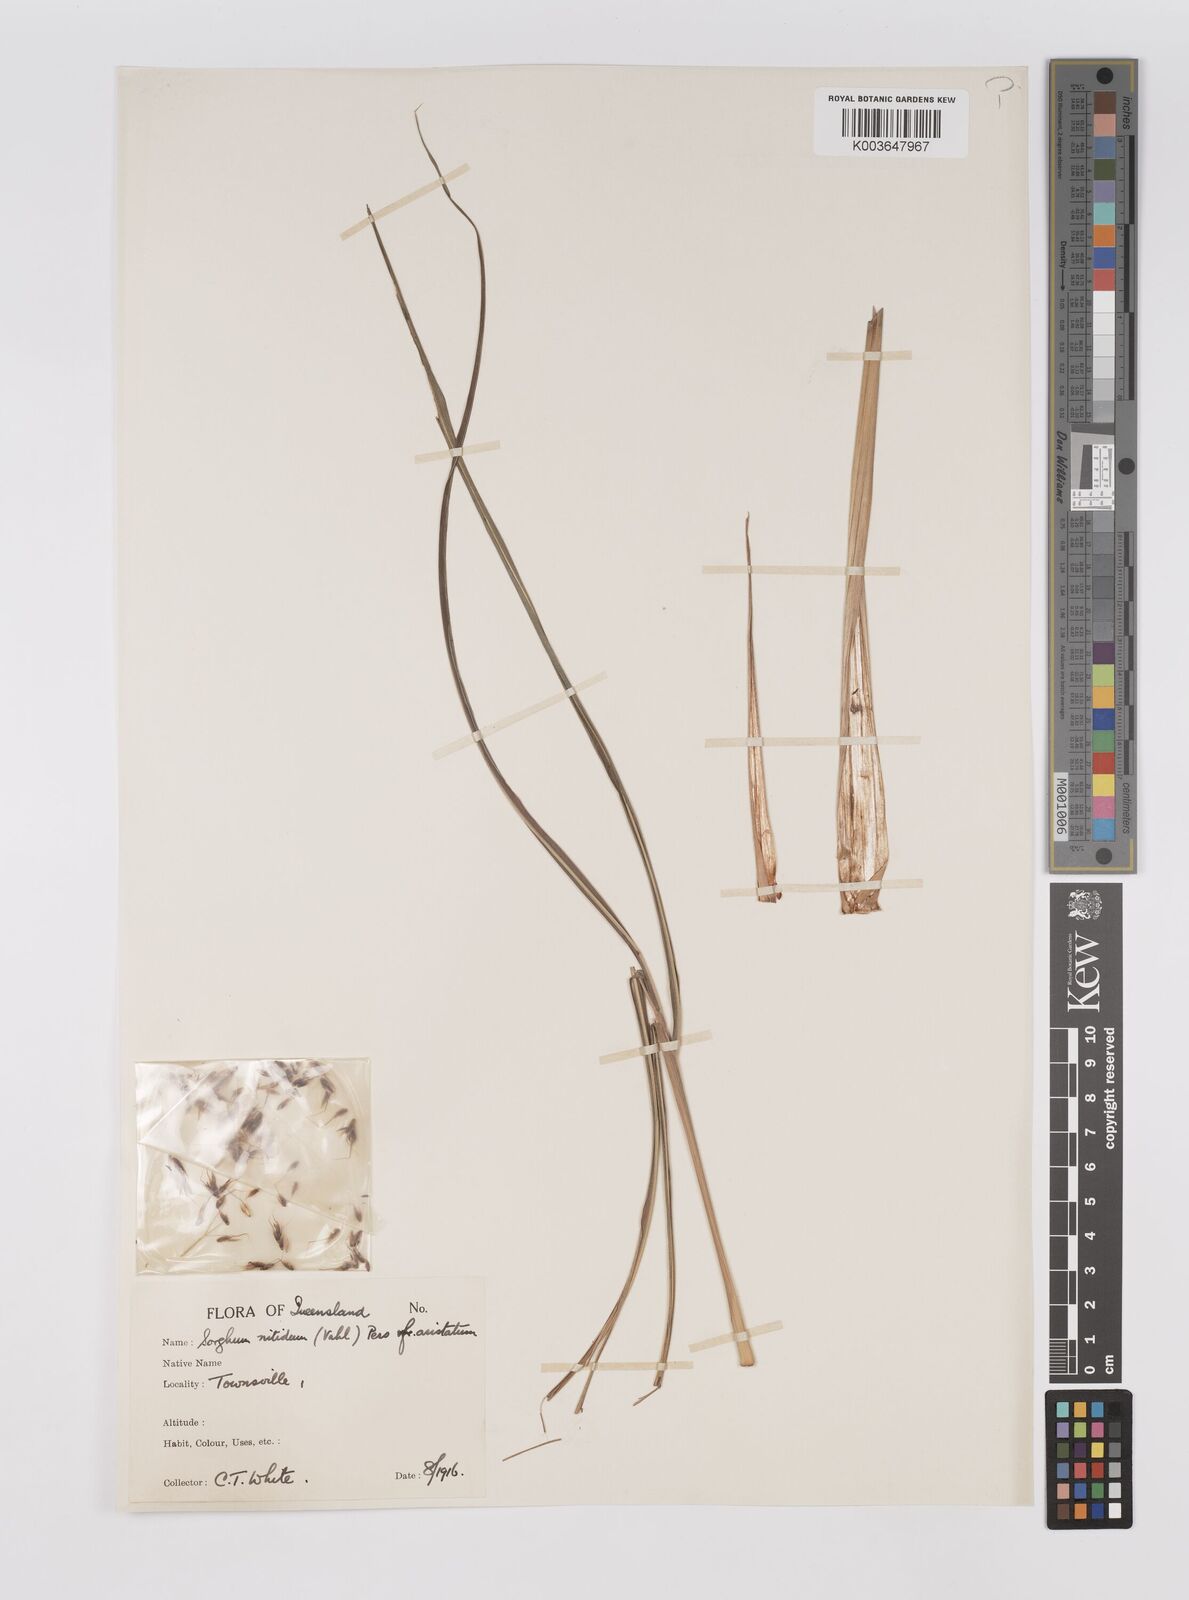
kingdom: Plantae
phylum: Tracheophyta
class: Liliopsida
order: Poales
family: Poaceae
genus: Sorghum
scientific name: Sorghum nitidum
